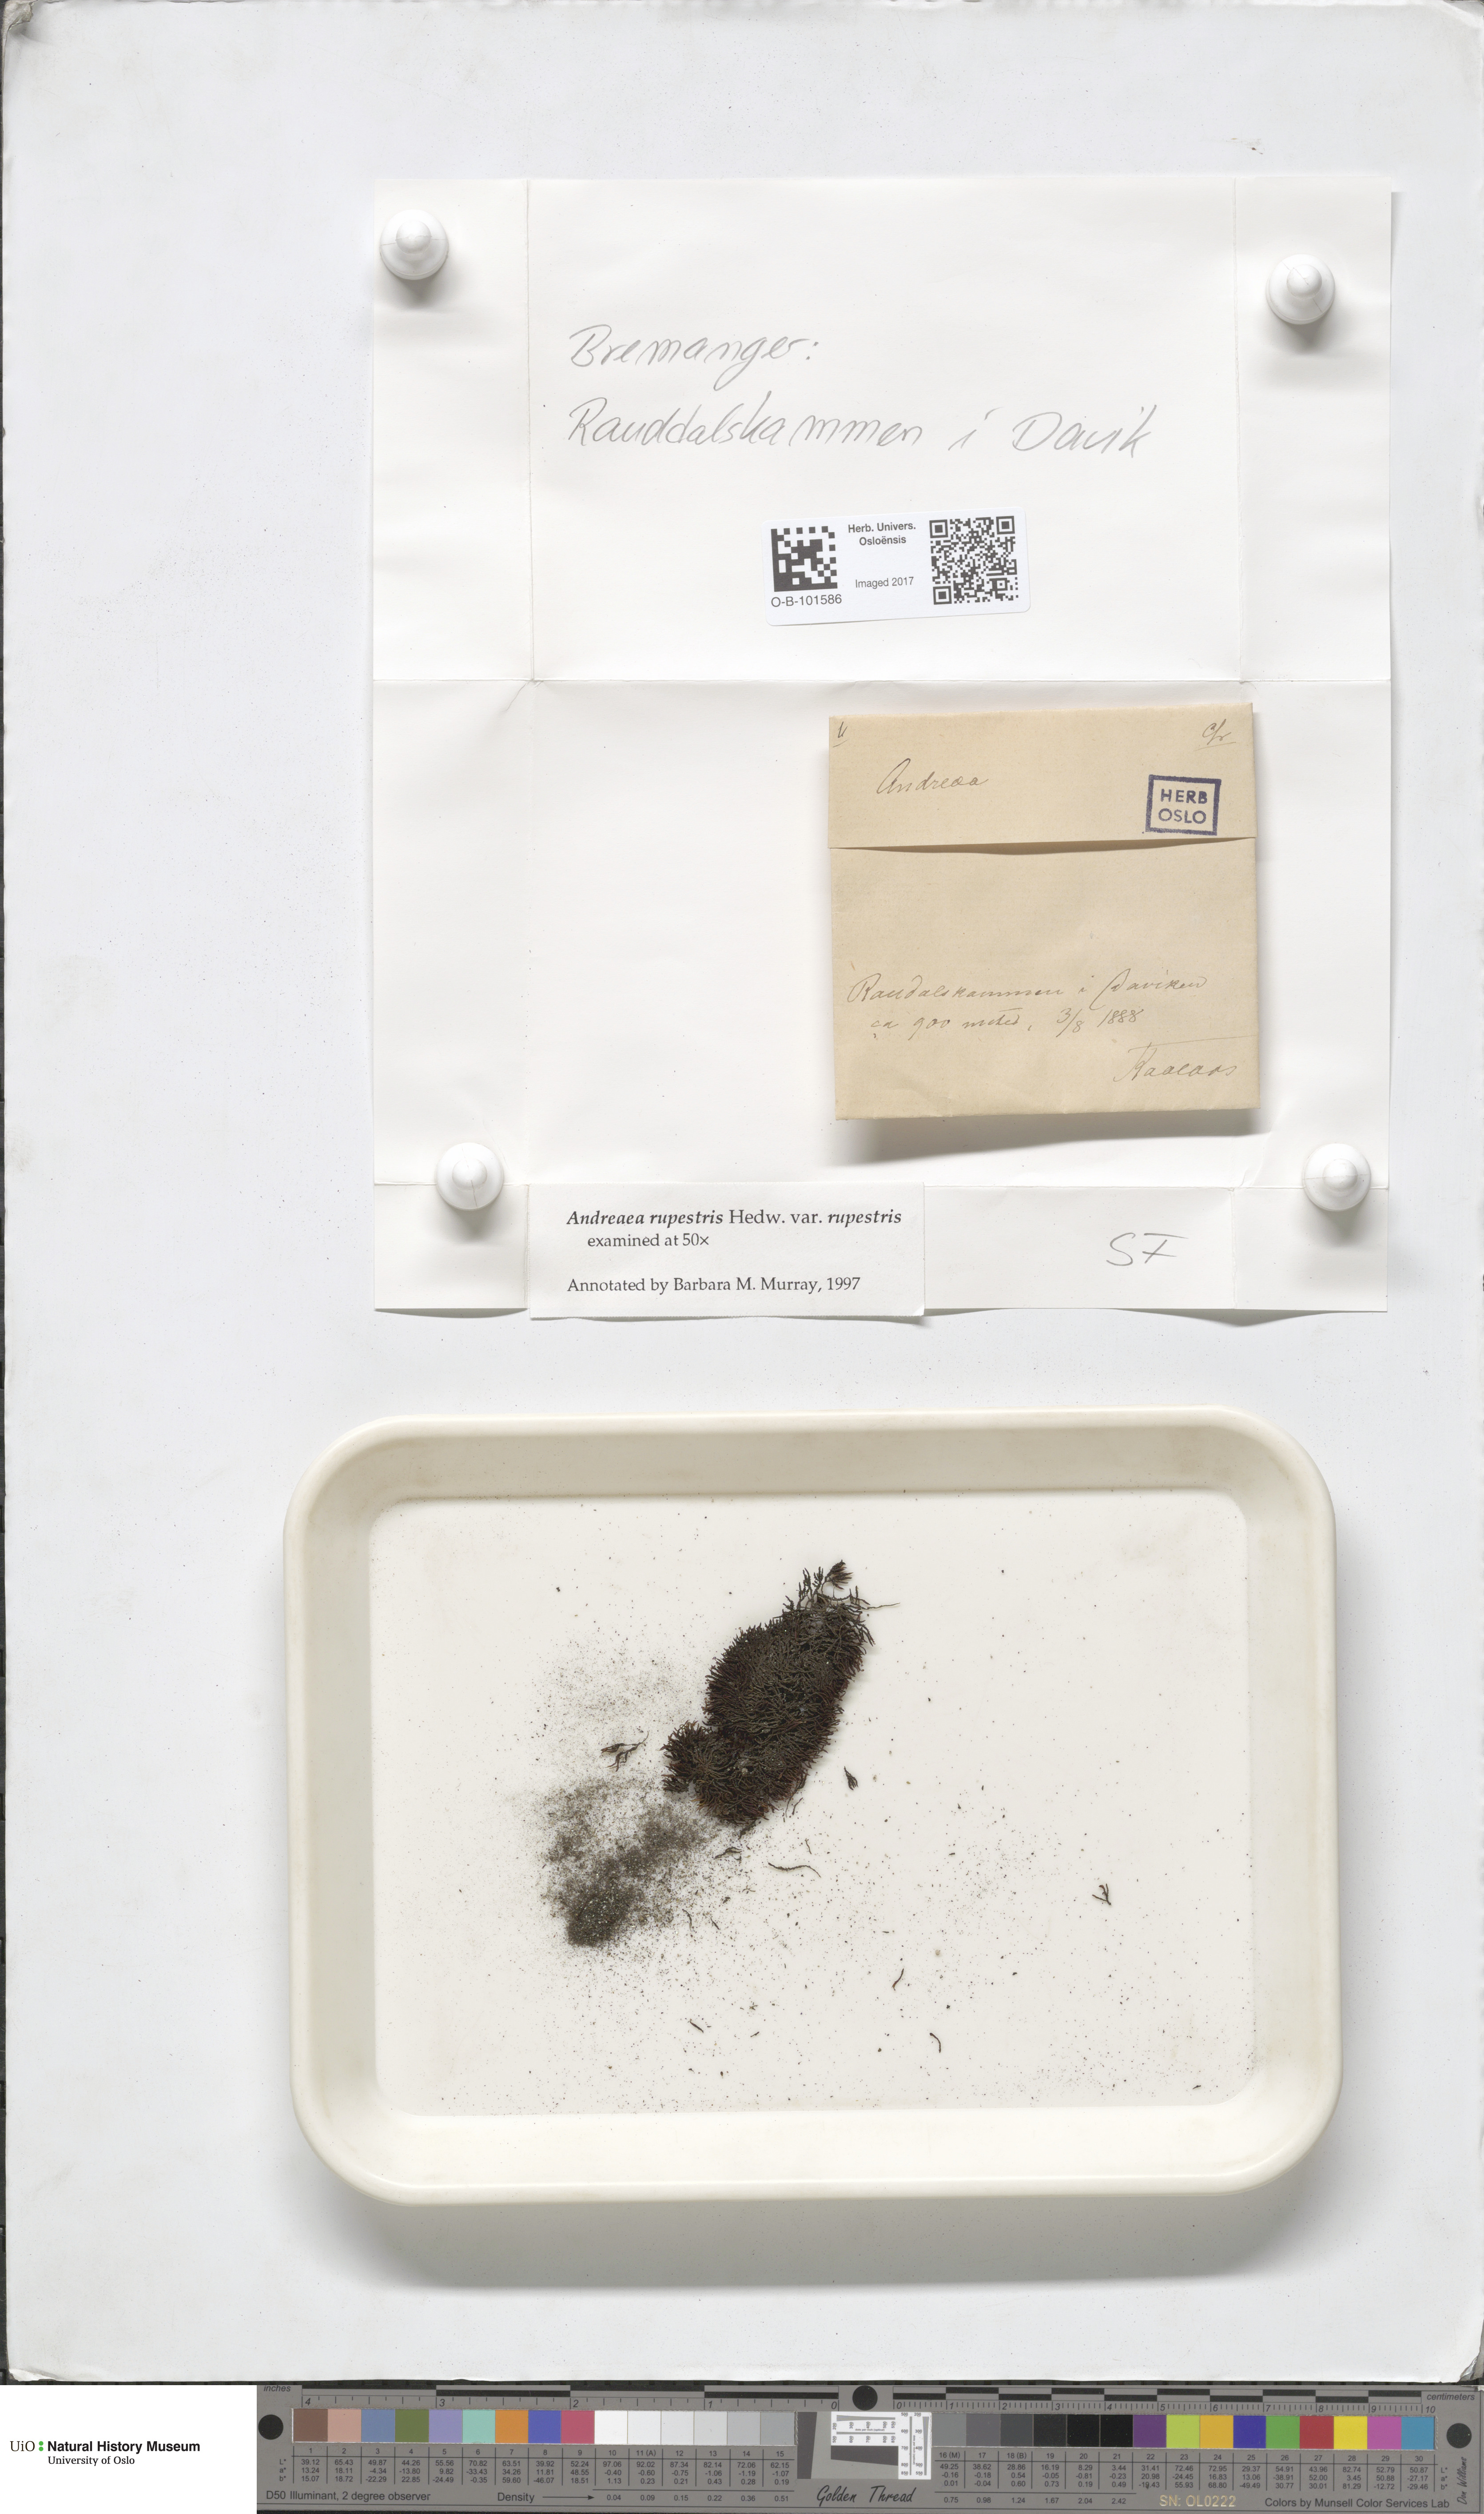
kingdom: Plantae
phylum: Bryophyta
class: Andreaeopsida
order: Andreaeales
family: Andreaeaceae
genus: Andreaea
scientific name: Andreaea rupestris
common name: Black rock moss
